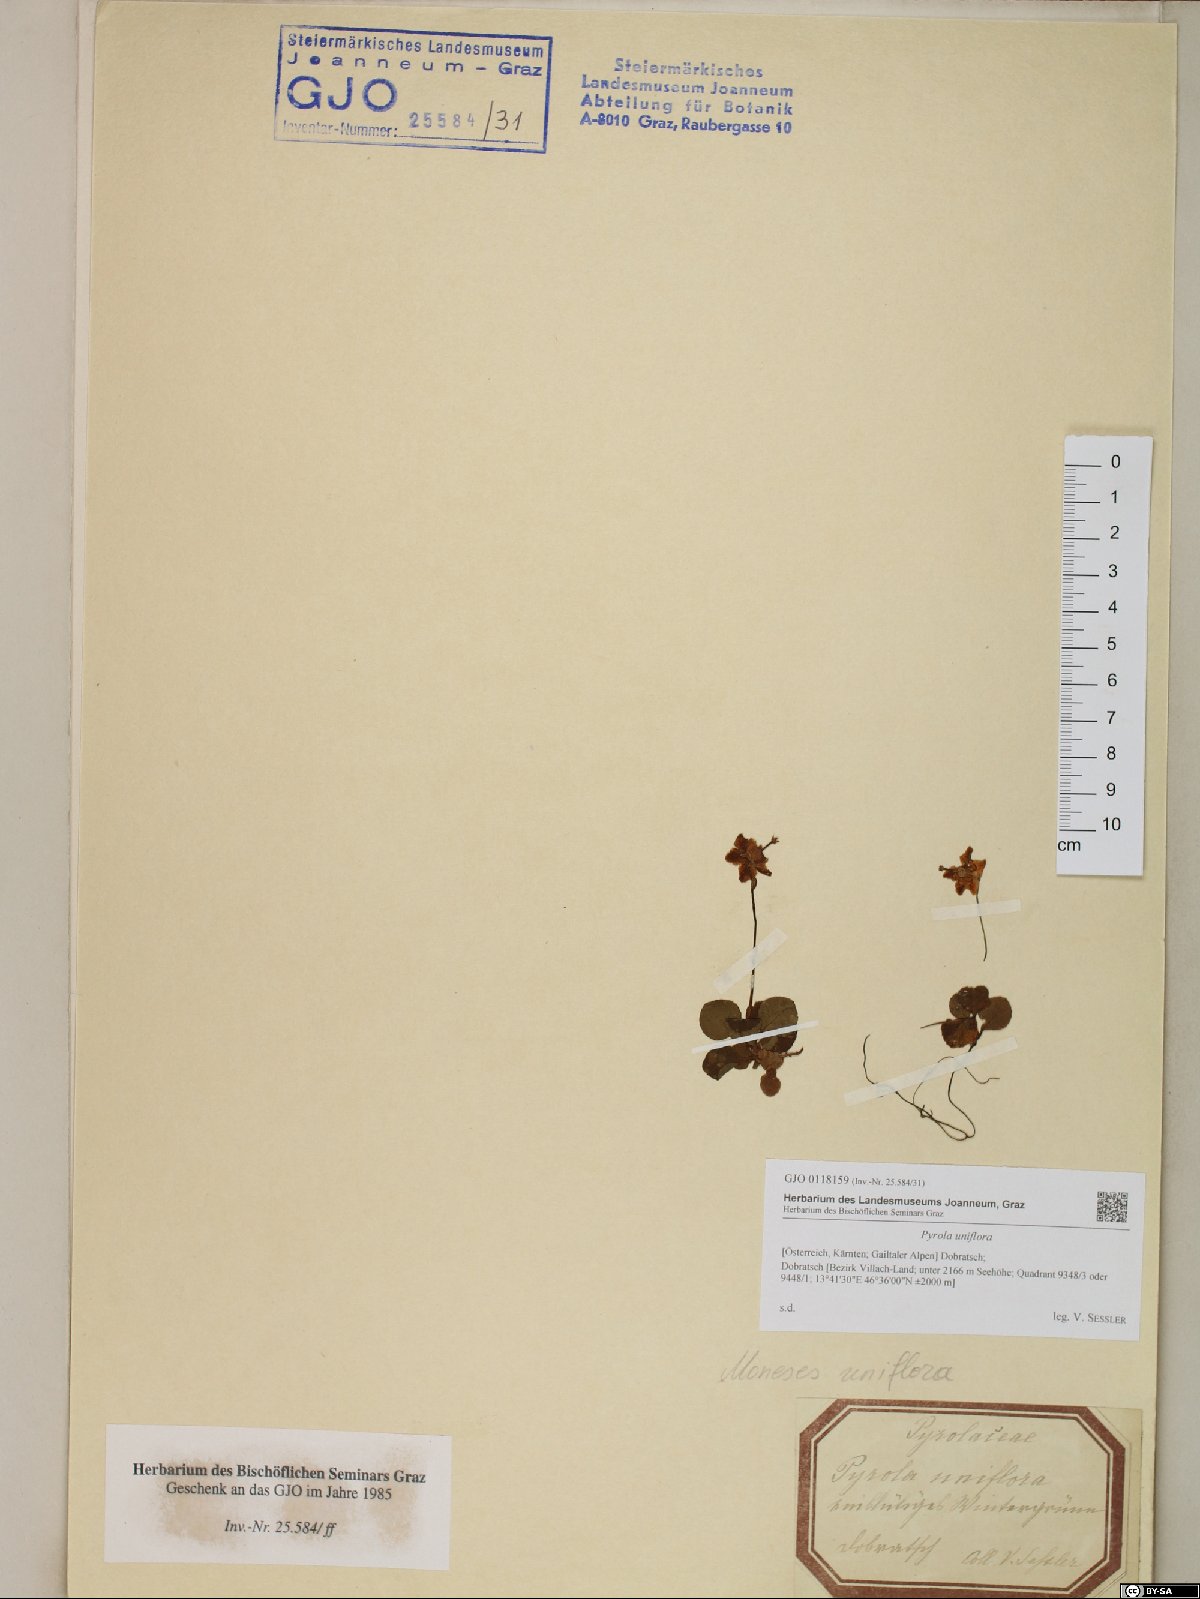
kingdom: Plantae
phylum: Tracheophyta
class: Magnoliopsida
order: Ericales
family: Ericaceae
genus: Moneses
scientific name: Moneses uniflora
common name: One-flowered wintergreen
